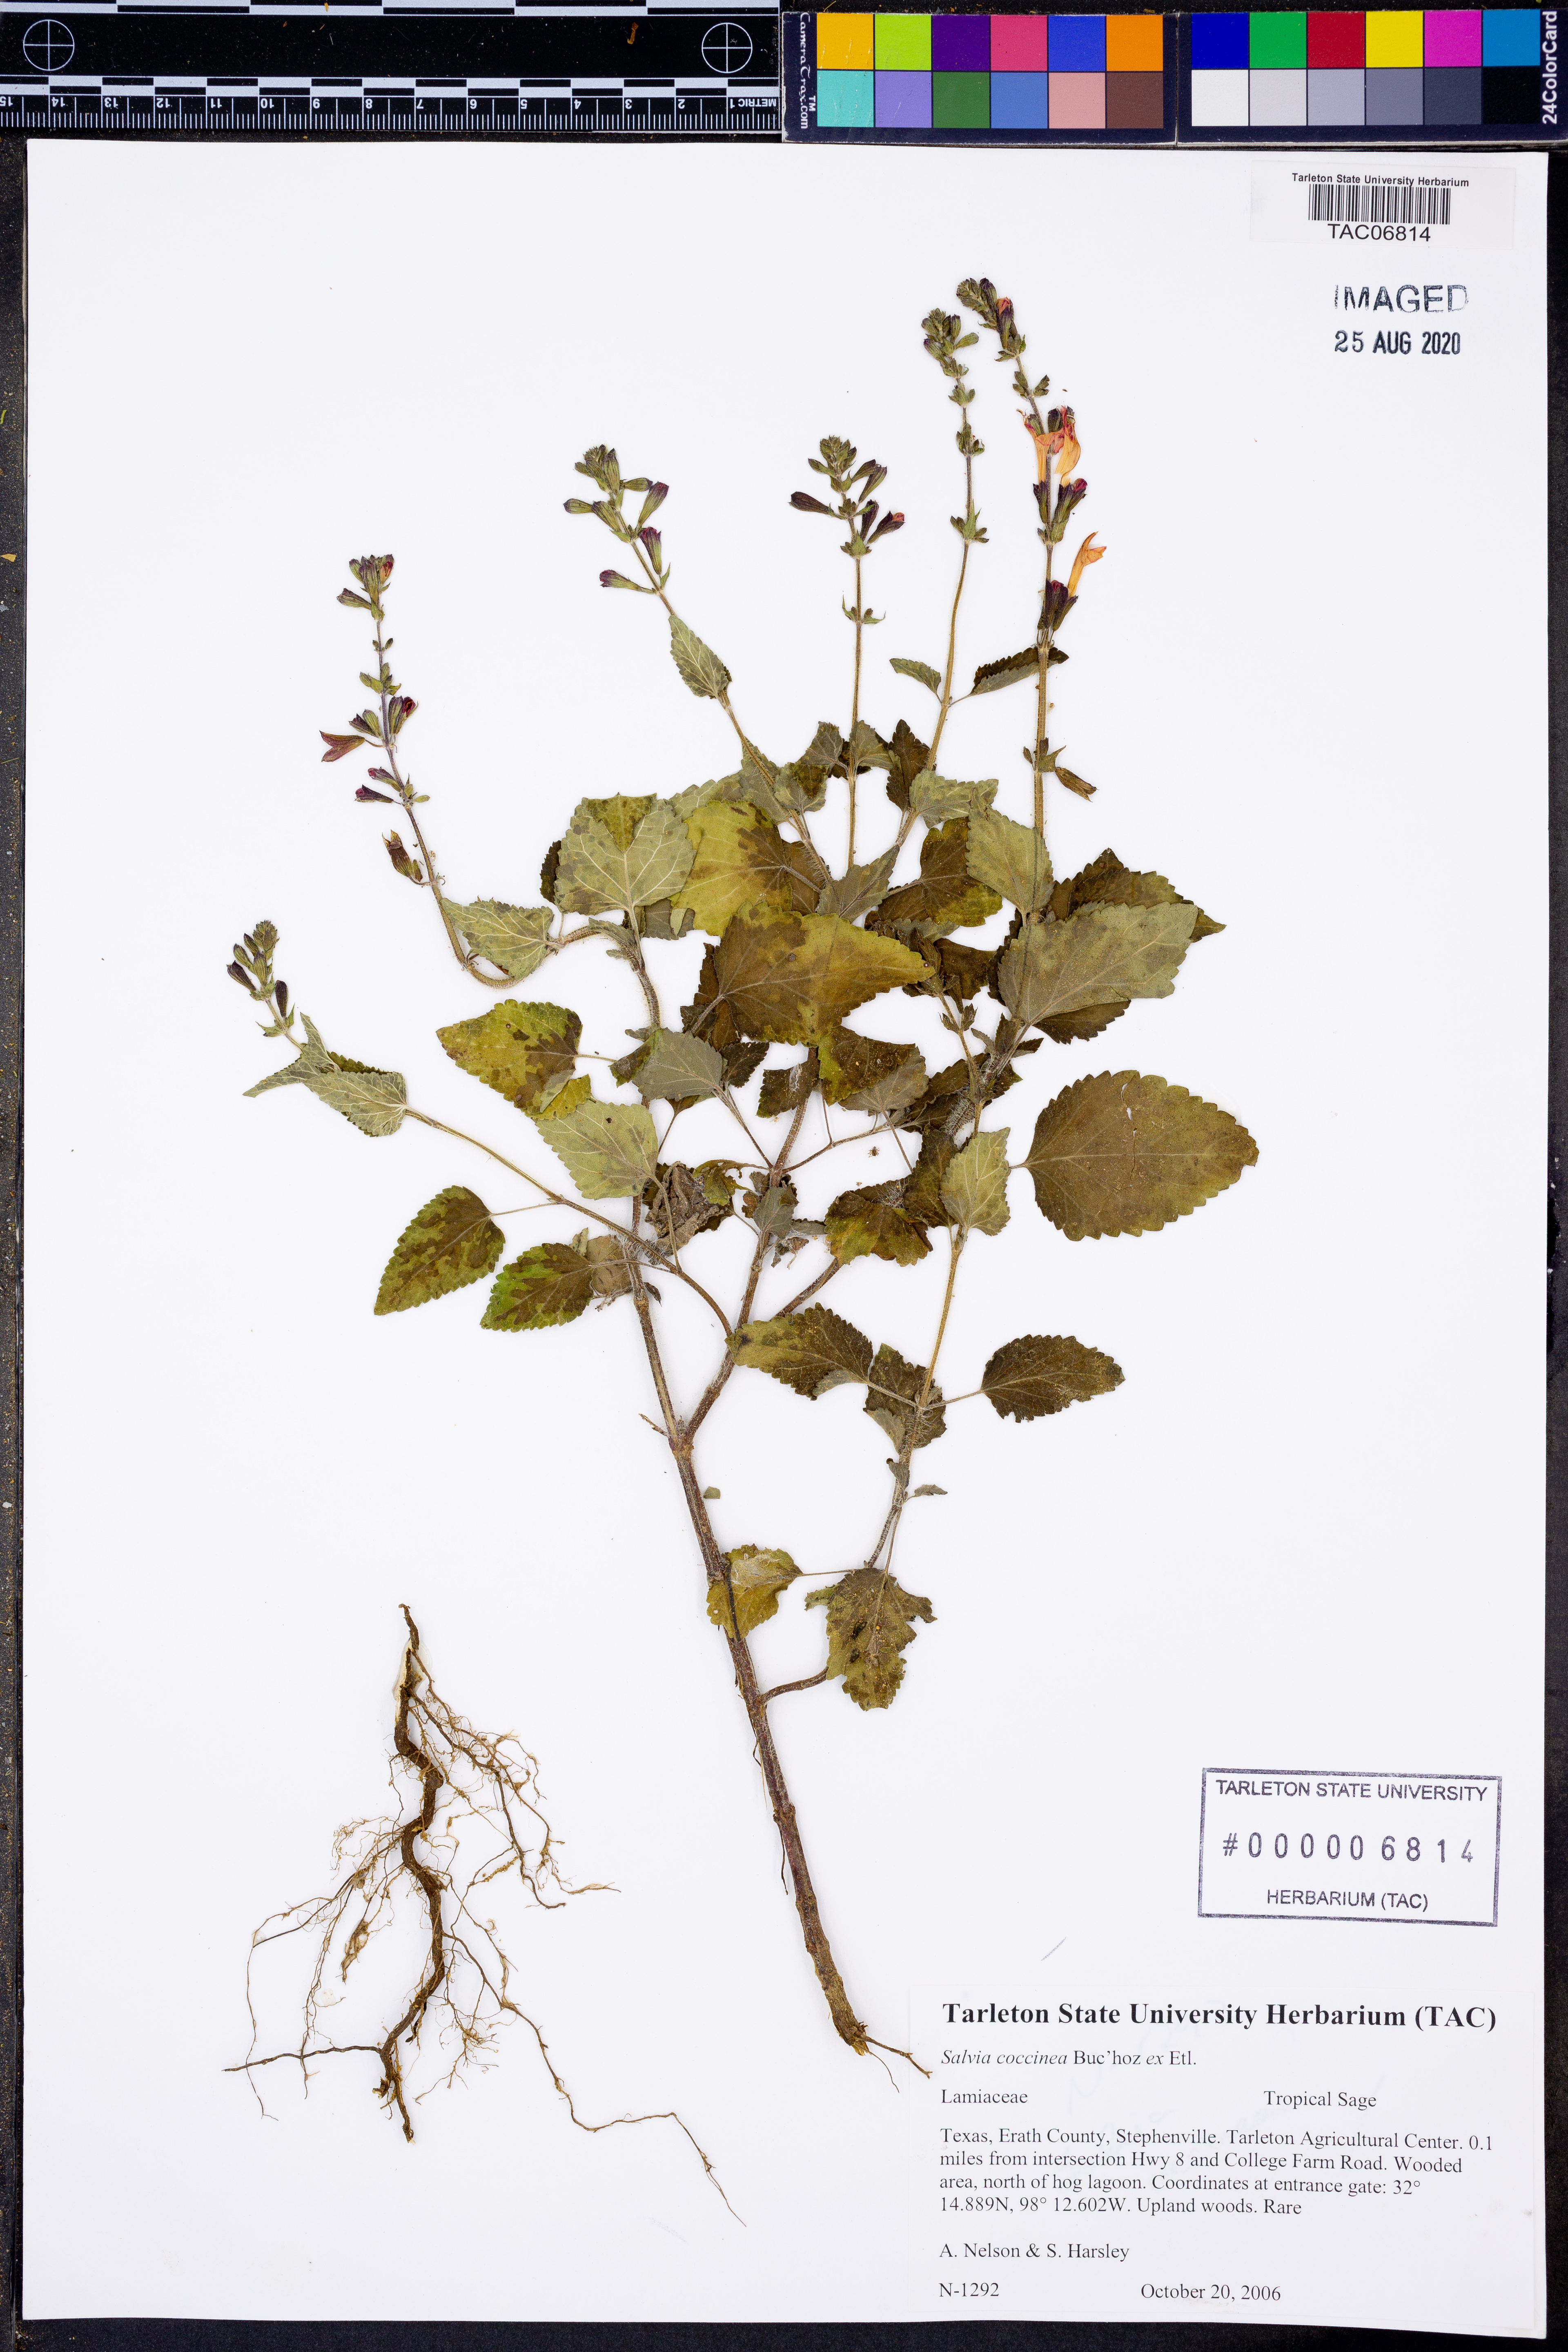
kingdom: Plantae
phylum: Tracheophyta
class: Magnoliopsida
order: Lamiales
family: Lamiaceae
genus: Salvia
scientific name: Salvia coccinea
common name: Blood sage
